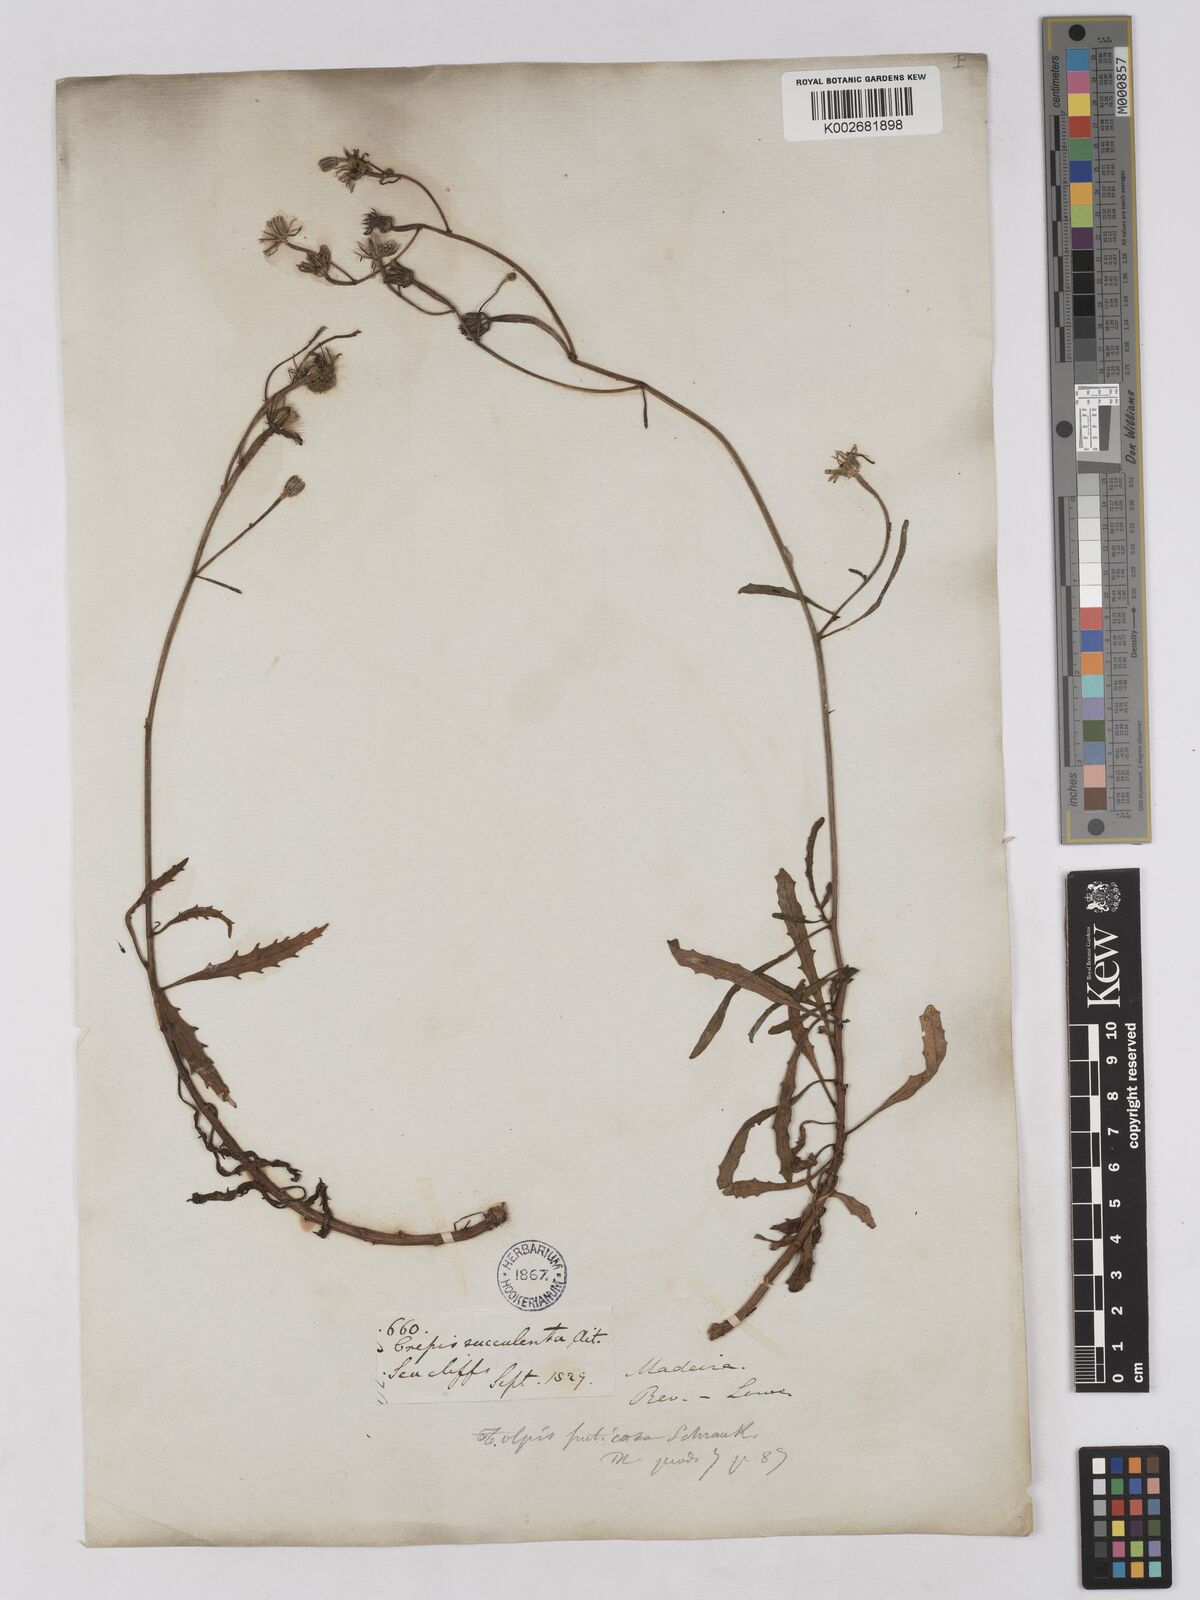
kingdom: Plantae
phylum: Tracheophyta
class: Magnoliopsida
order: Asterales
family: Asteraceae
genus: Tolpis
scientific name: Tolpis succulenta
